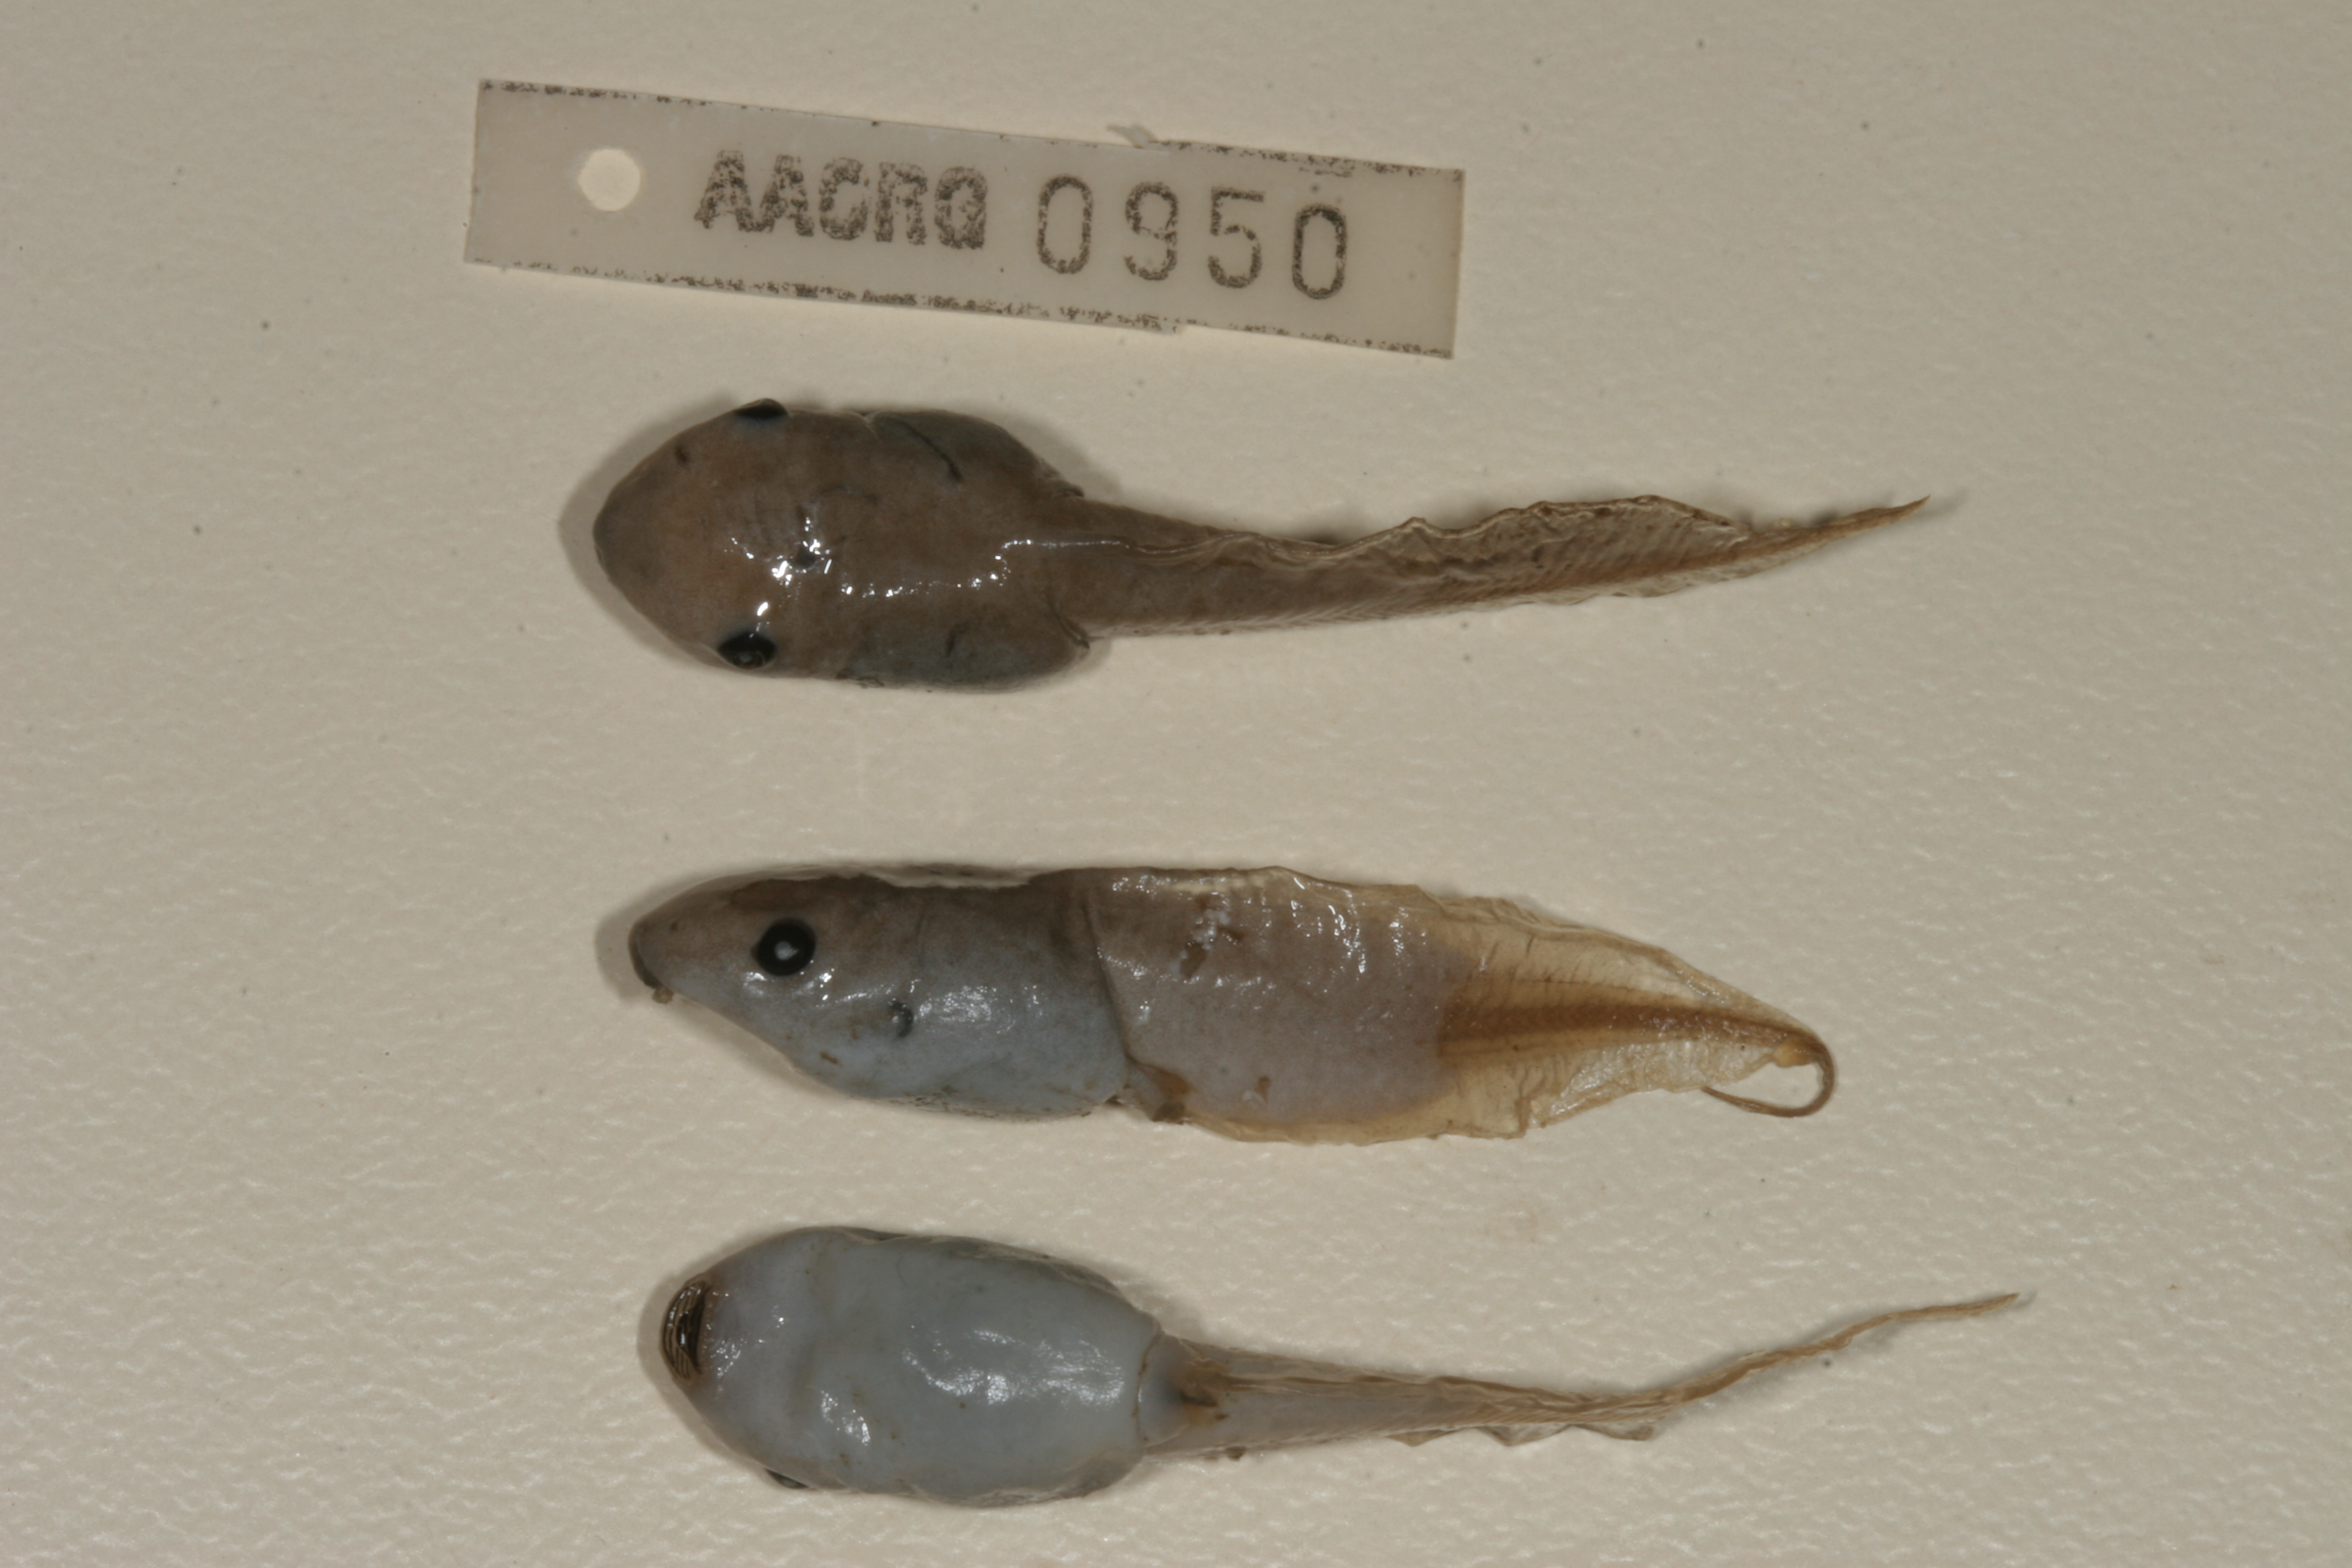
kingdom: Animalia
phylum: Chordata
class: Amphibia
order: Anura
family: Hemisotidae
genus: Hemisus
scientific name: Hemisus marmoratus
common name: Mottled shovel-nosed frog
